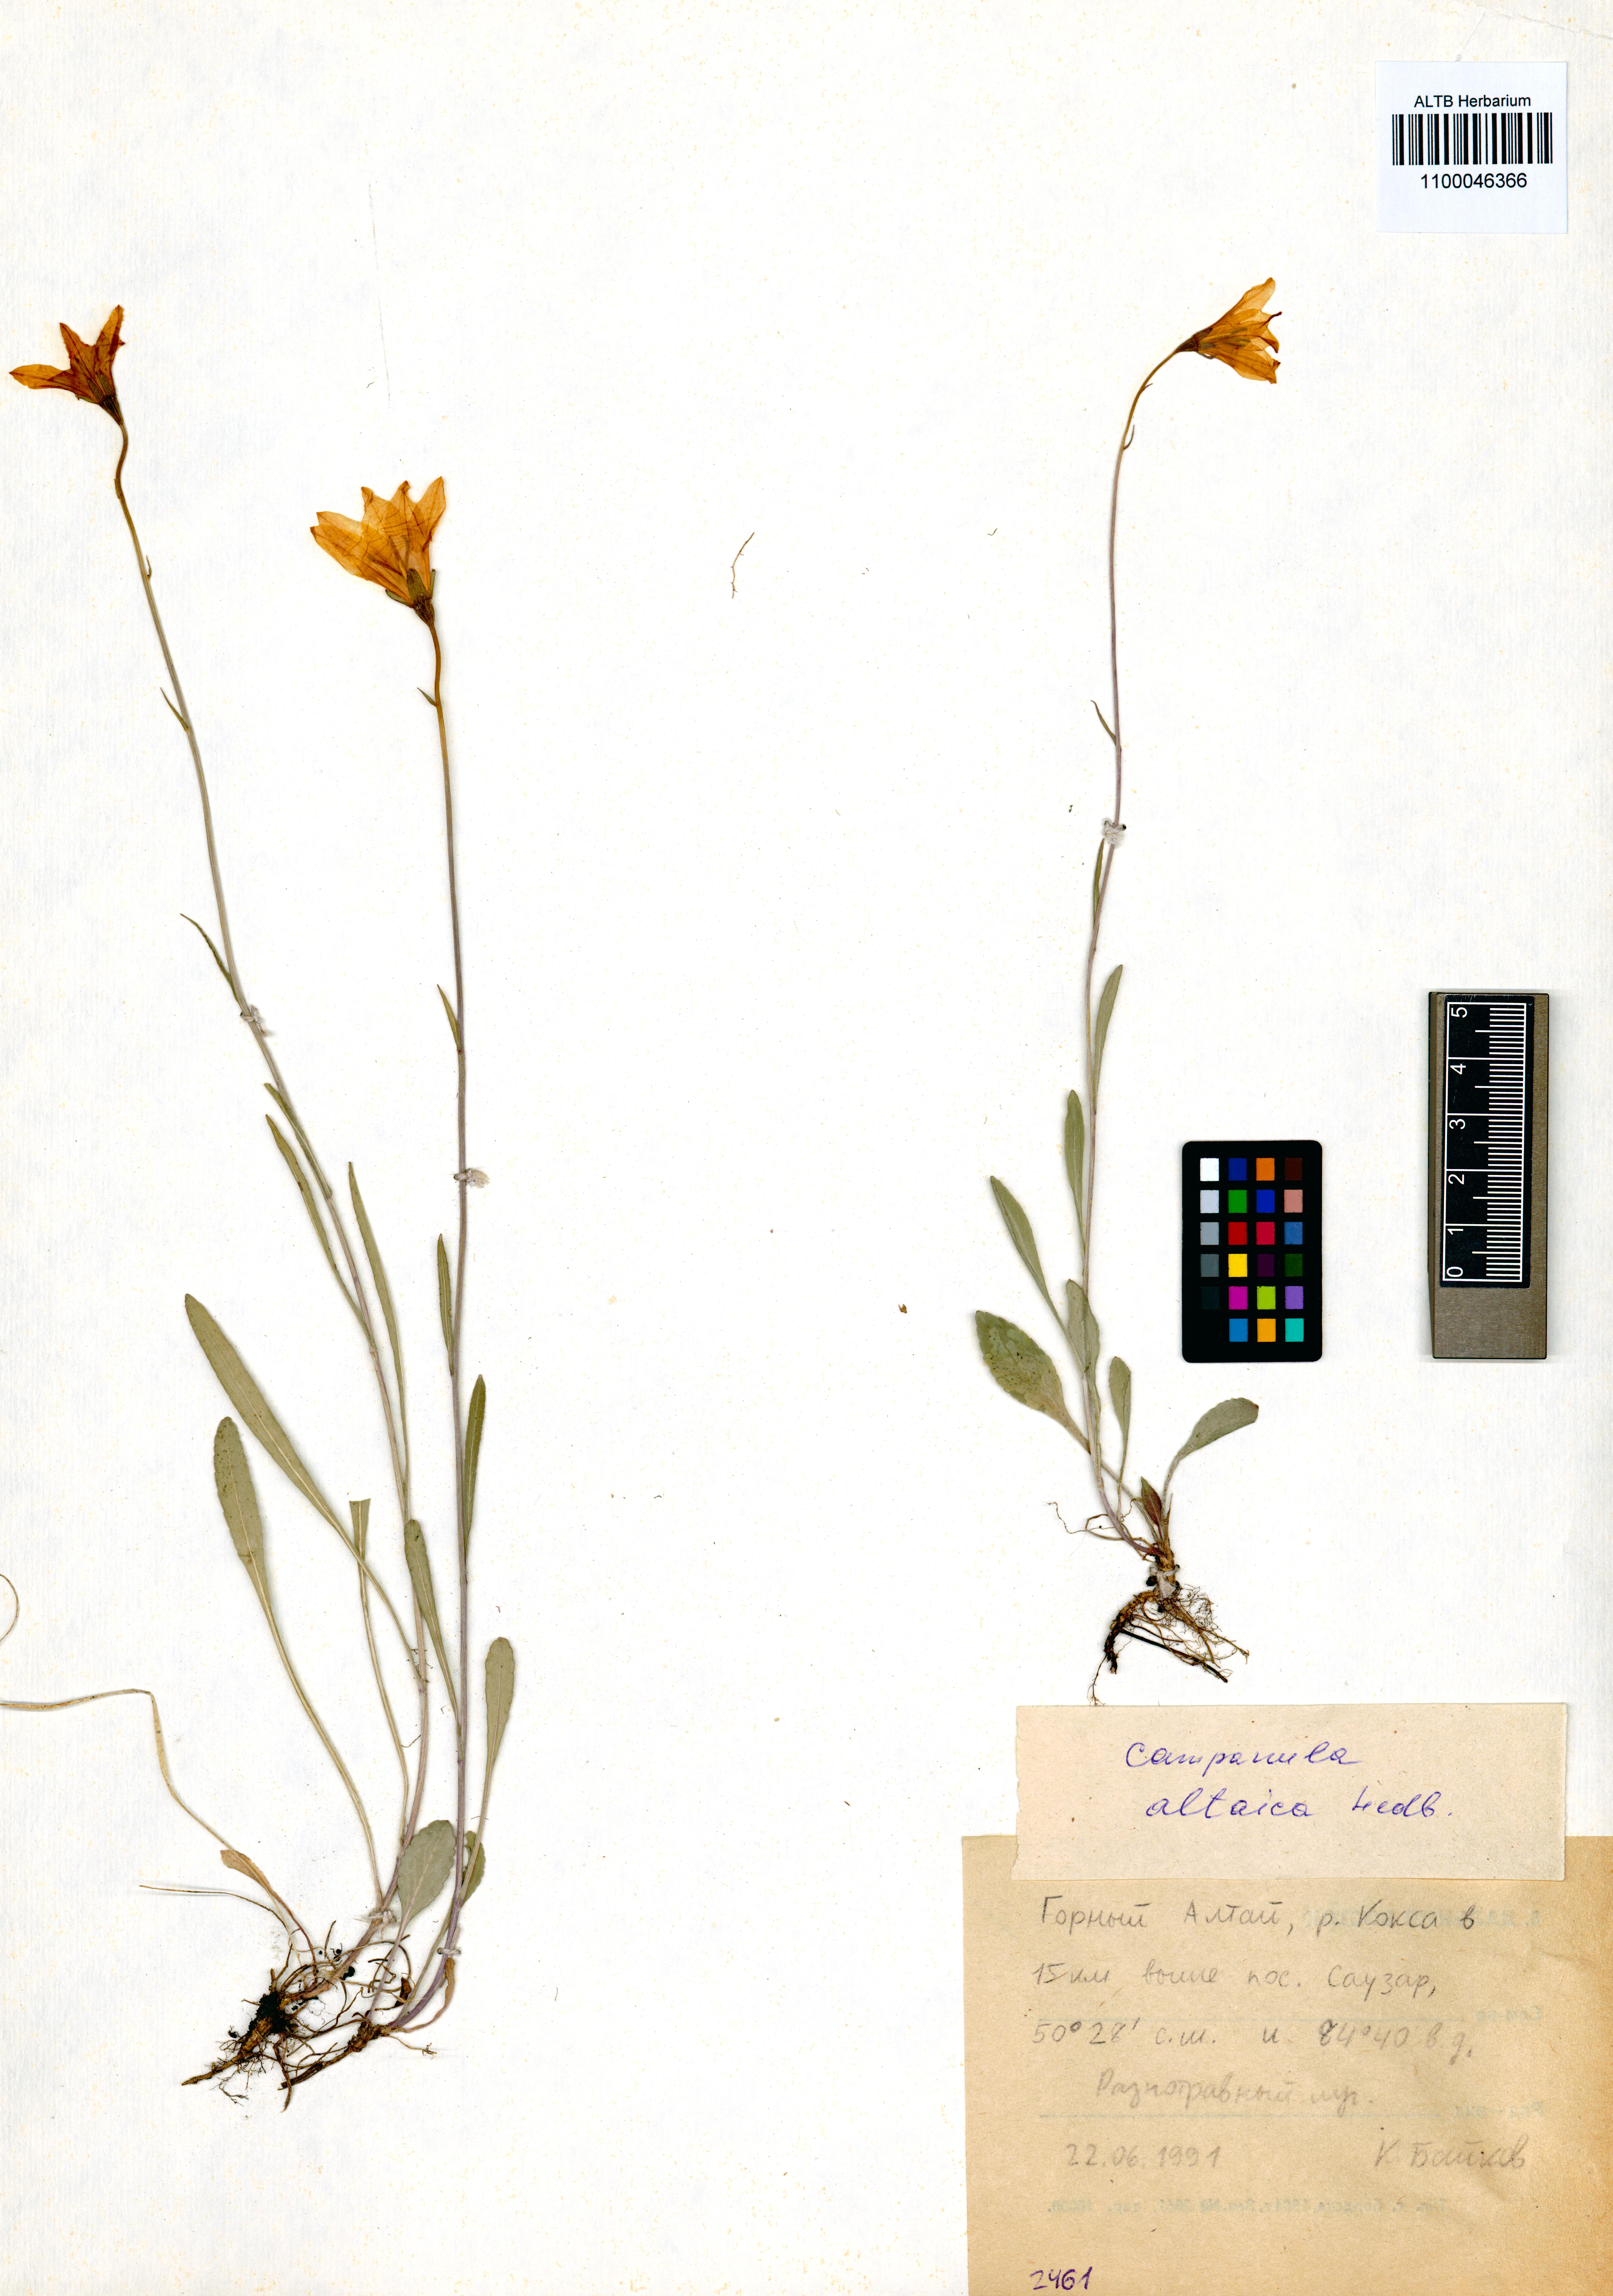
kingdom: Plantae
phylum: Tracheophyta
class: Magnoliopsida
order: Asterales
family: Campanulaceae
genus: Campanula
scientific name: Campanula stevenii
